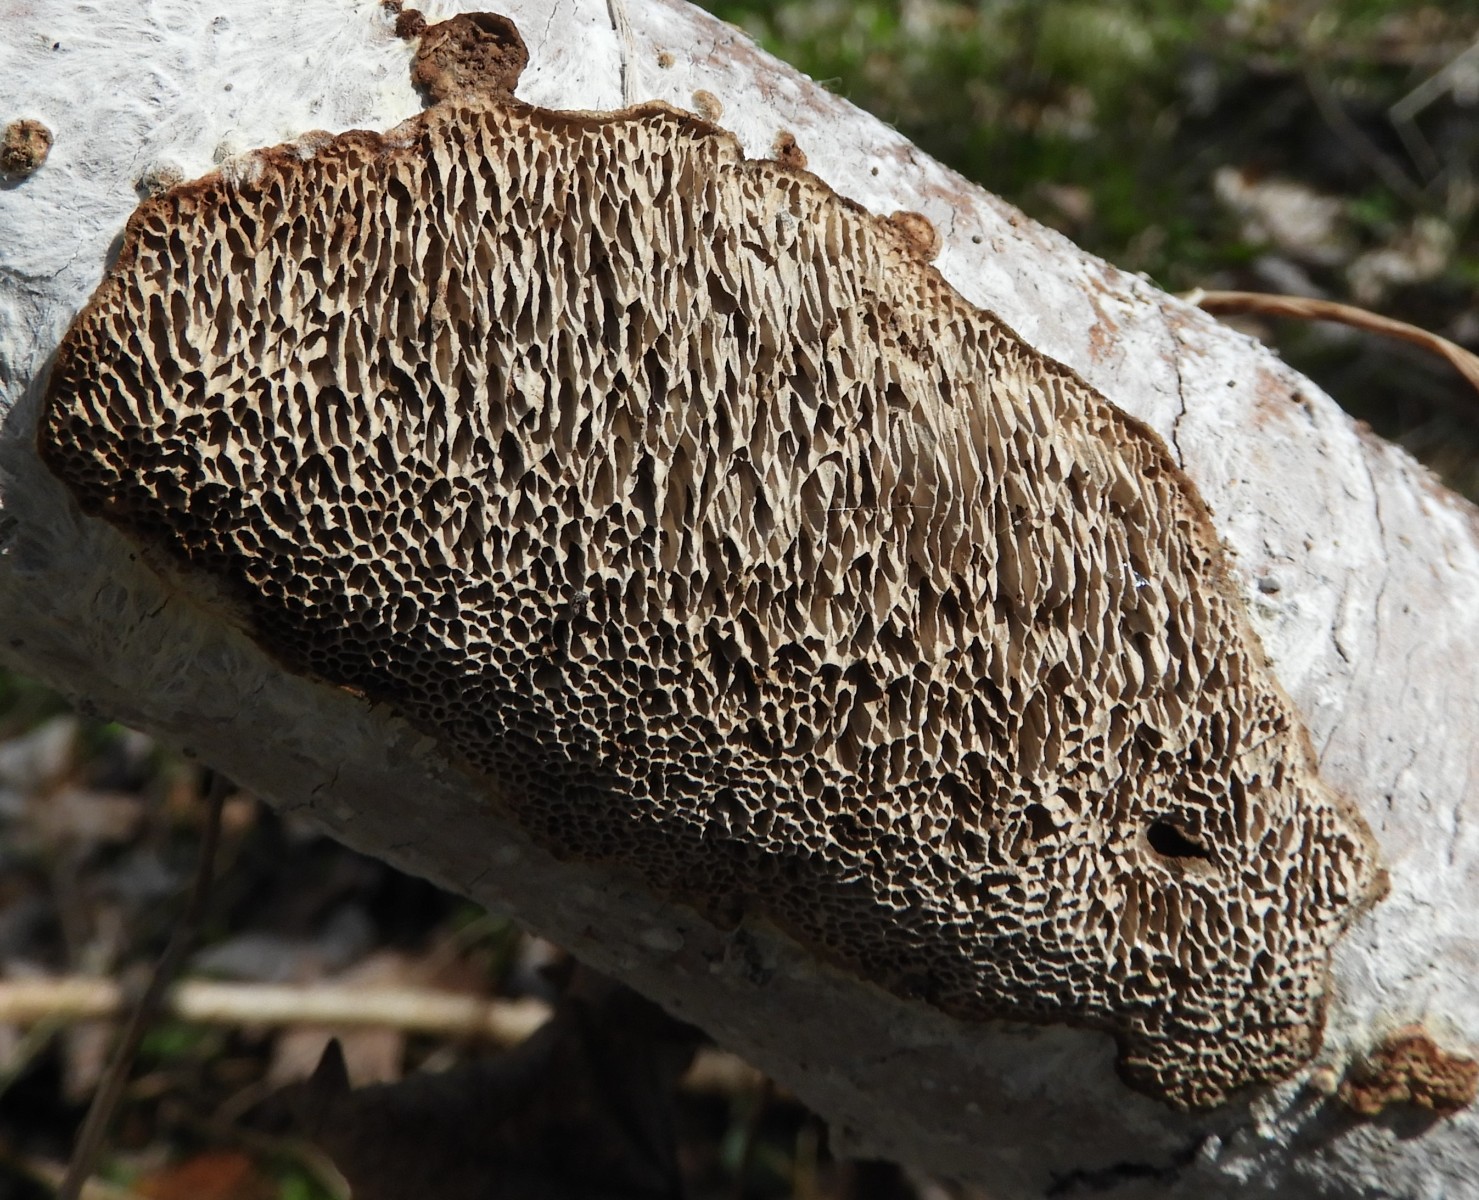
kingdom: Fungi
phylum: Basidiomycota
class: Agaricomycetes
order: Polyporales
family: Polyporaceae
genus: Podofomes
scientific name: Podofomes mollis
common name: blød begporesvamp
